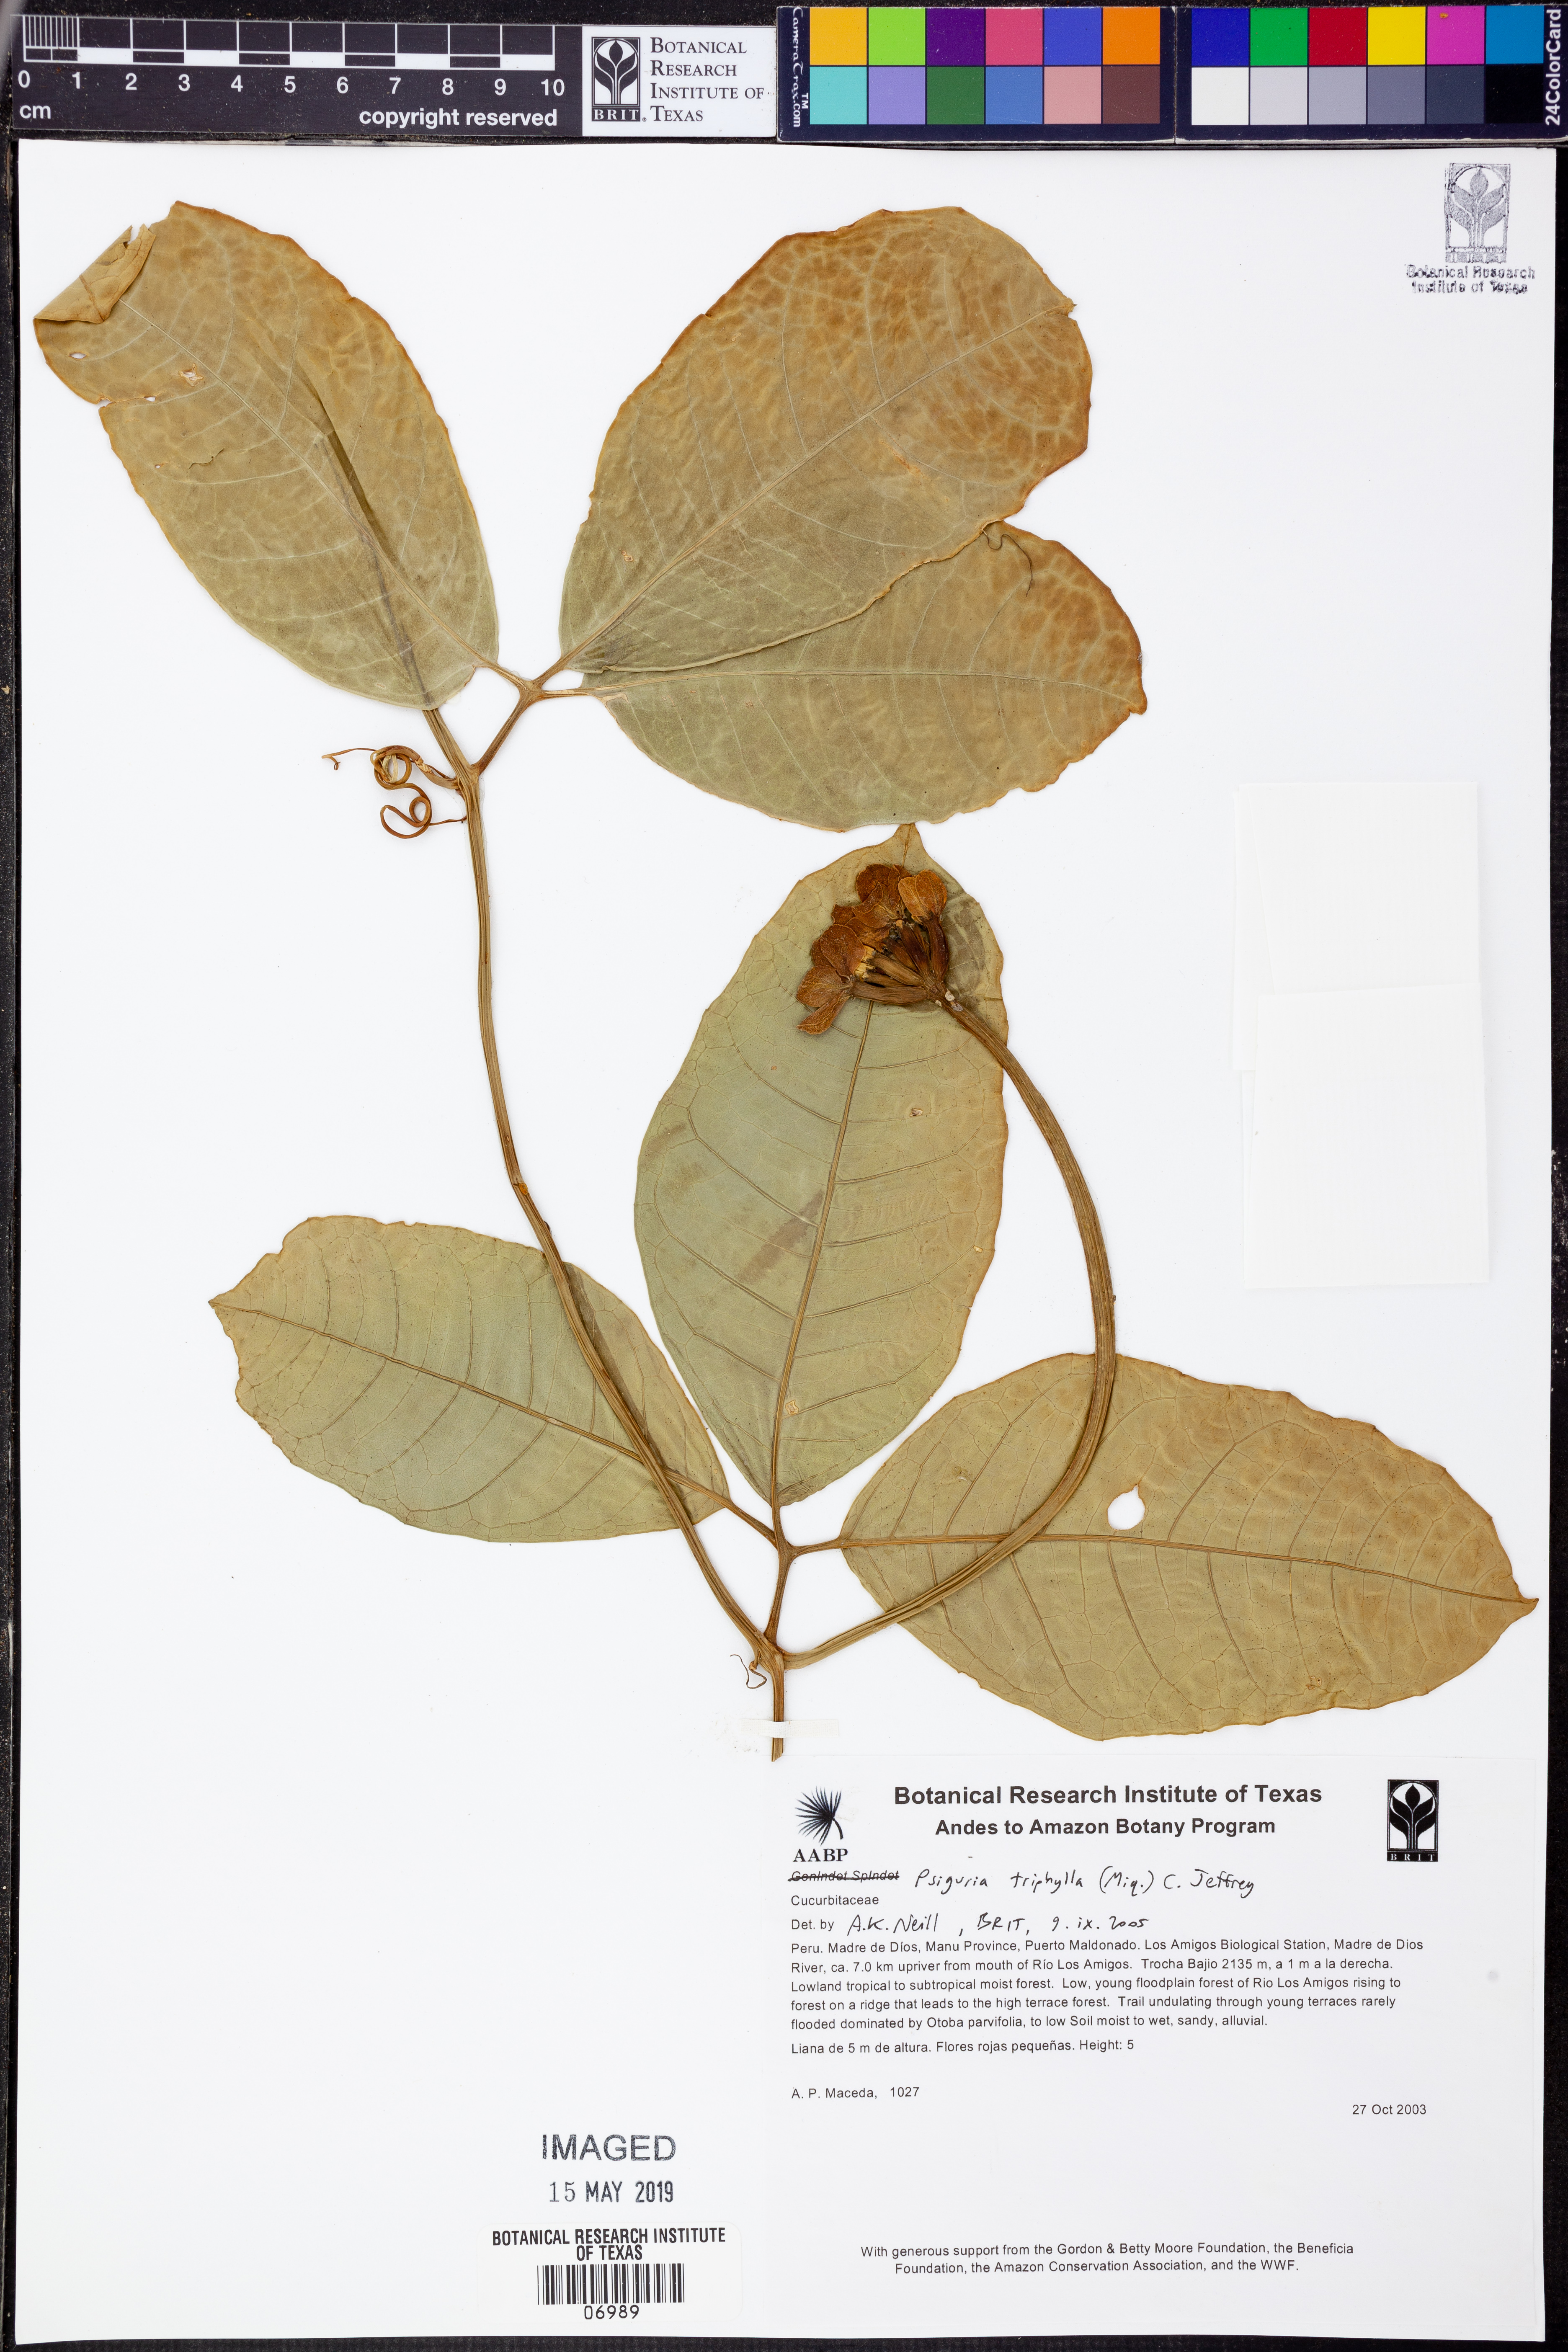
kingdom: Plantae
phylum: Tracheophyta
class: Magnoliopsida
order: Cucurbitales
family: Cucurbitaceae
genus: Psiguria
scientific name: Psiguria
